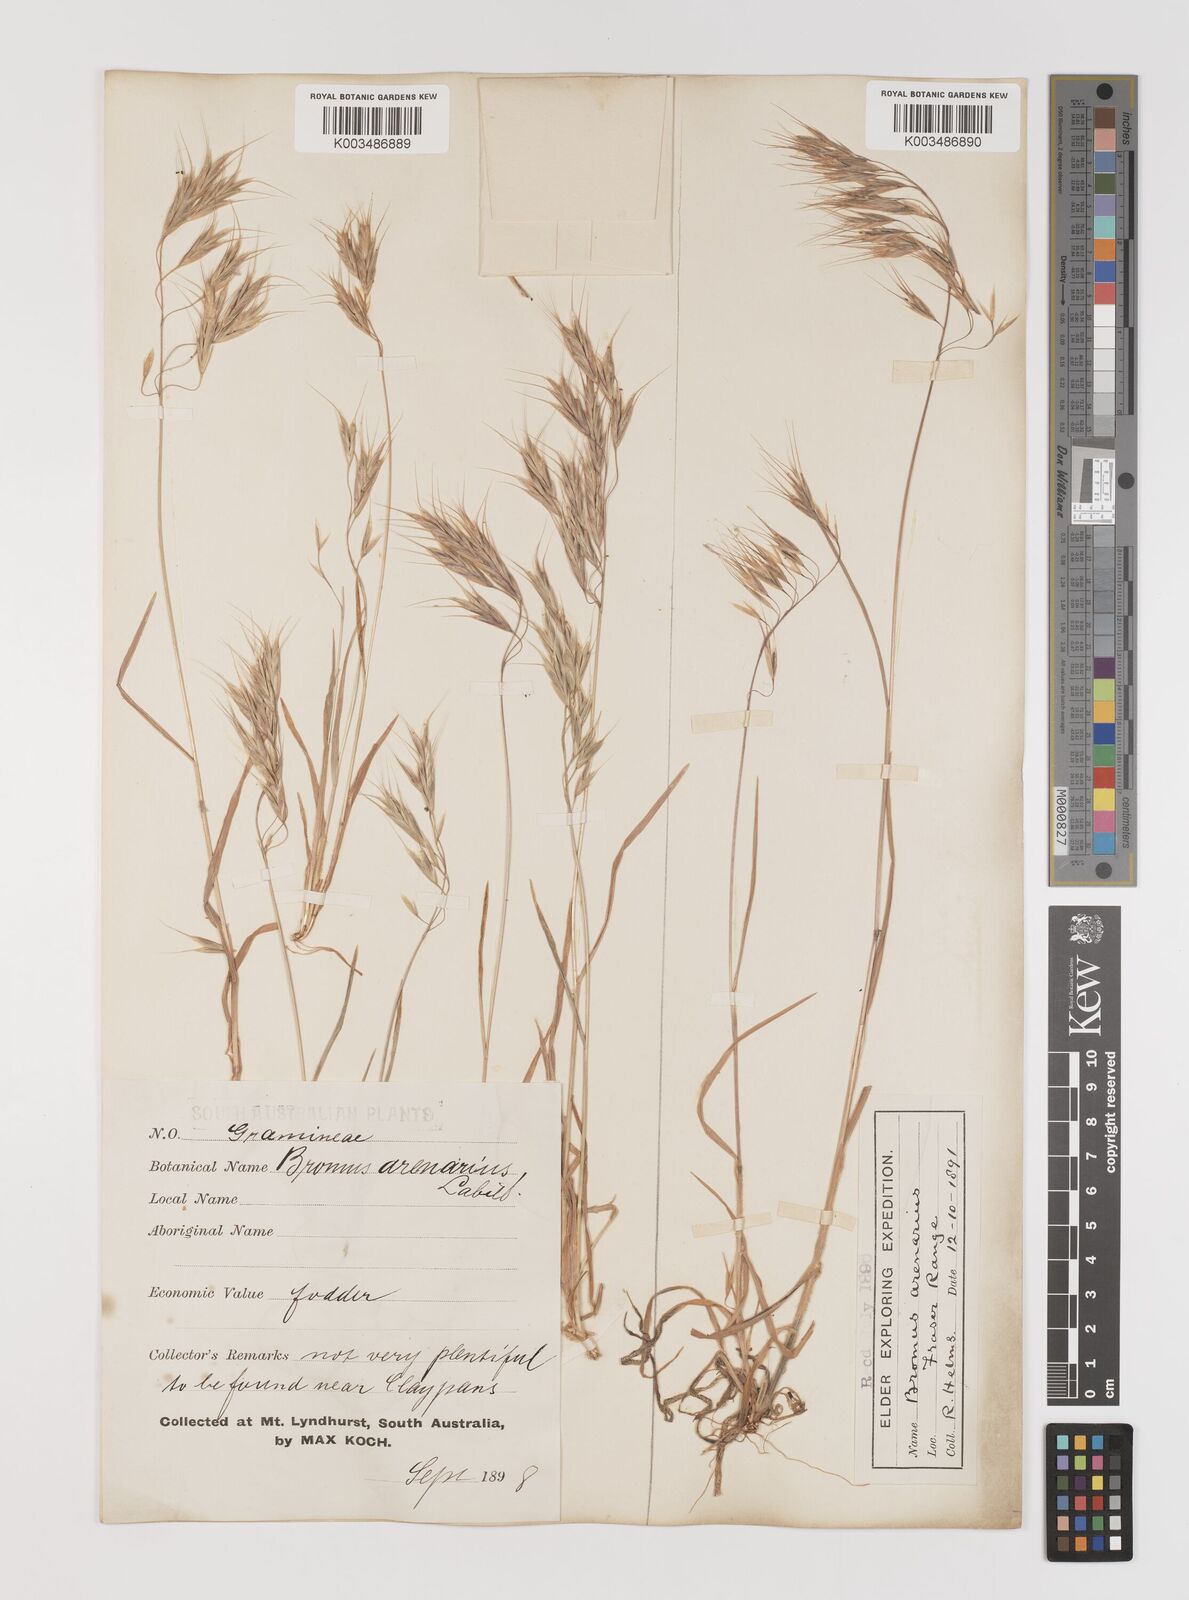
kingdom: Plantae
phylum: Tracheophyta
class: Liliopsida
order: Poales
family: Poaceae
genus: Bromus
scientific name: Bromus arenarius
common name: Australian brome
